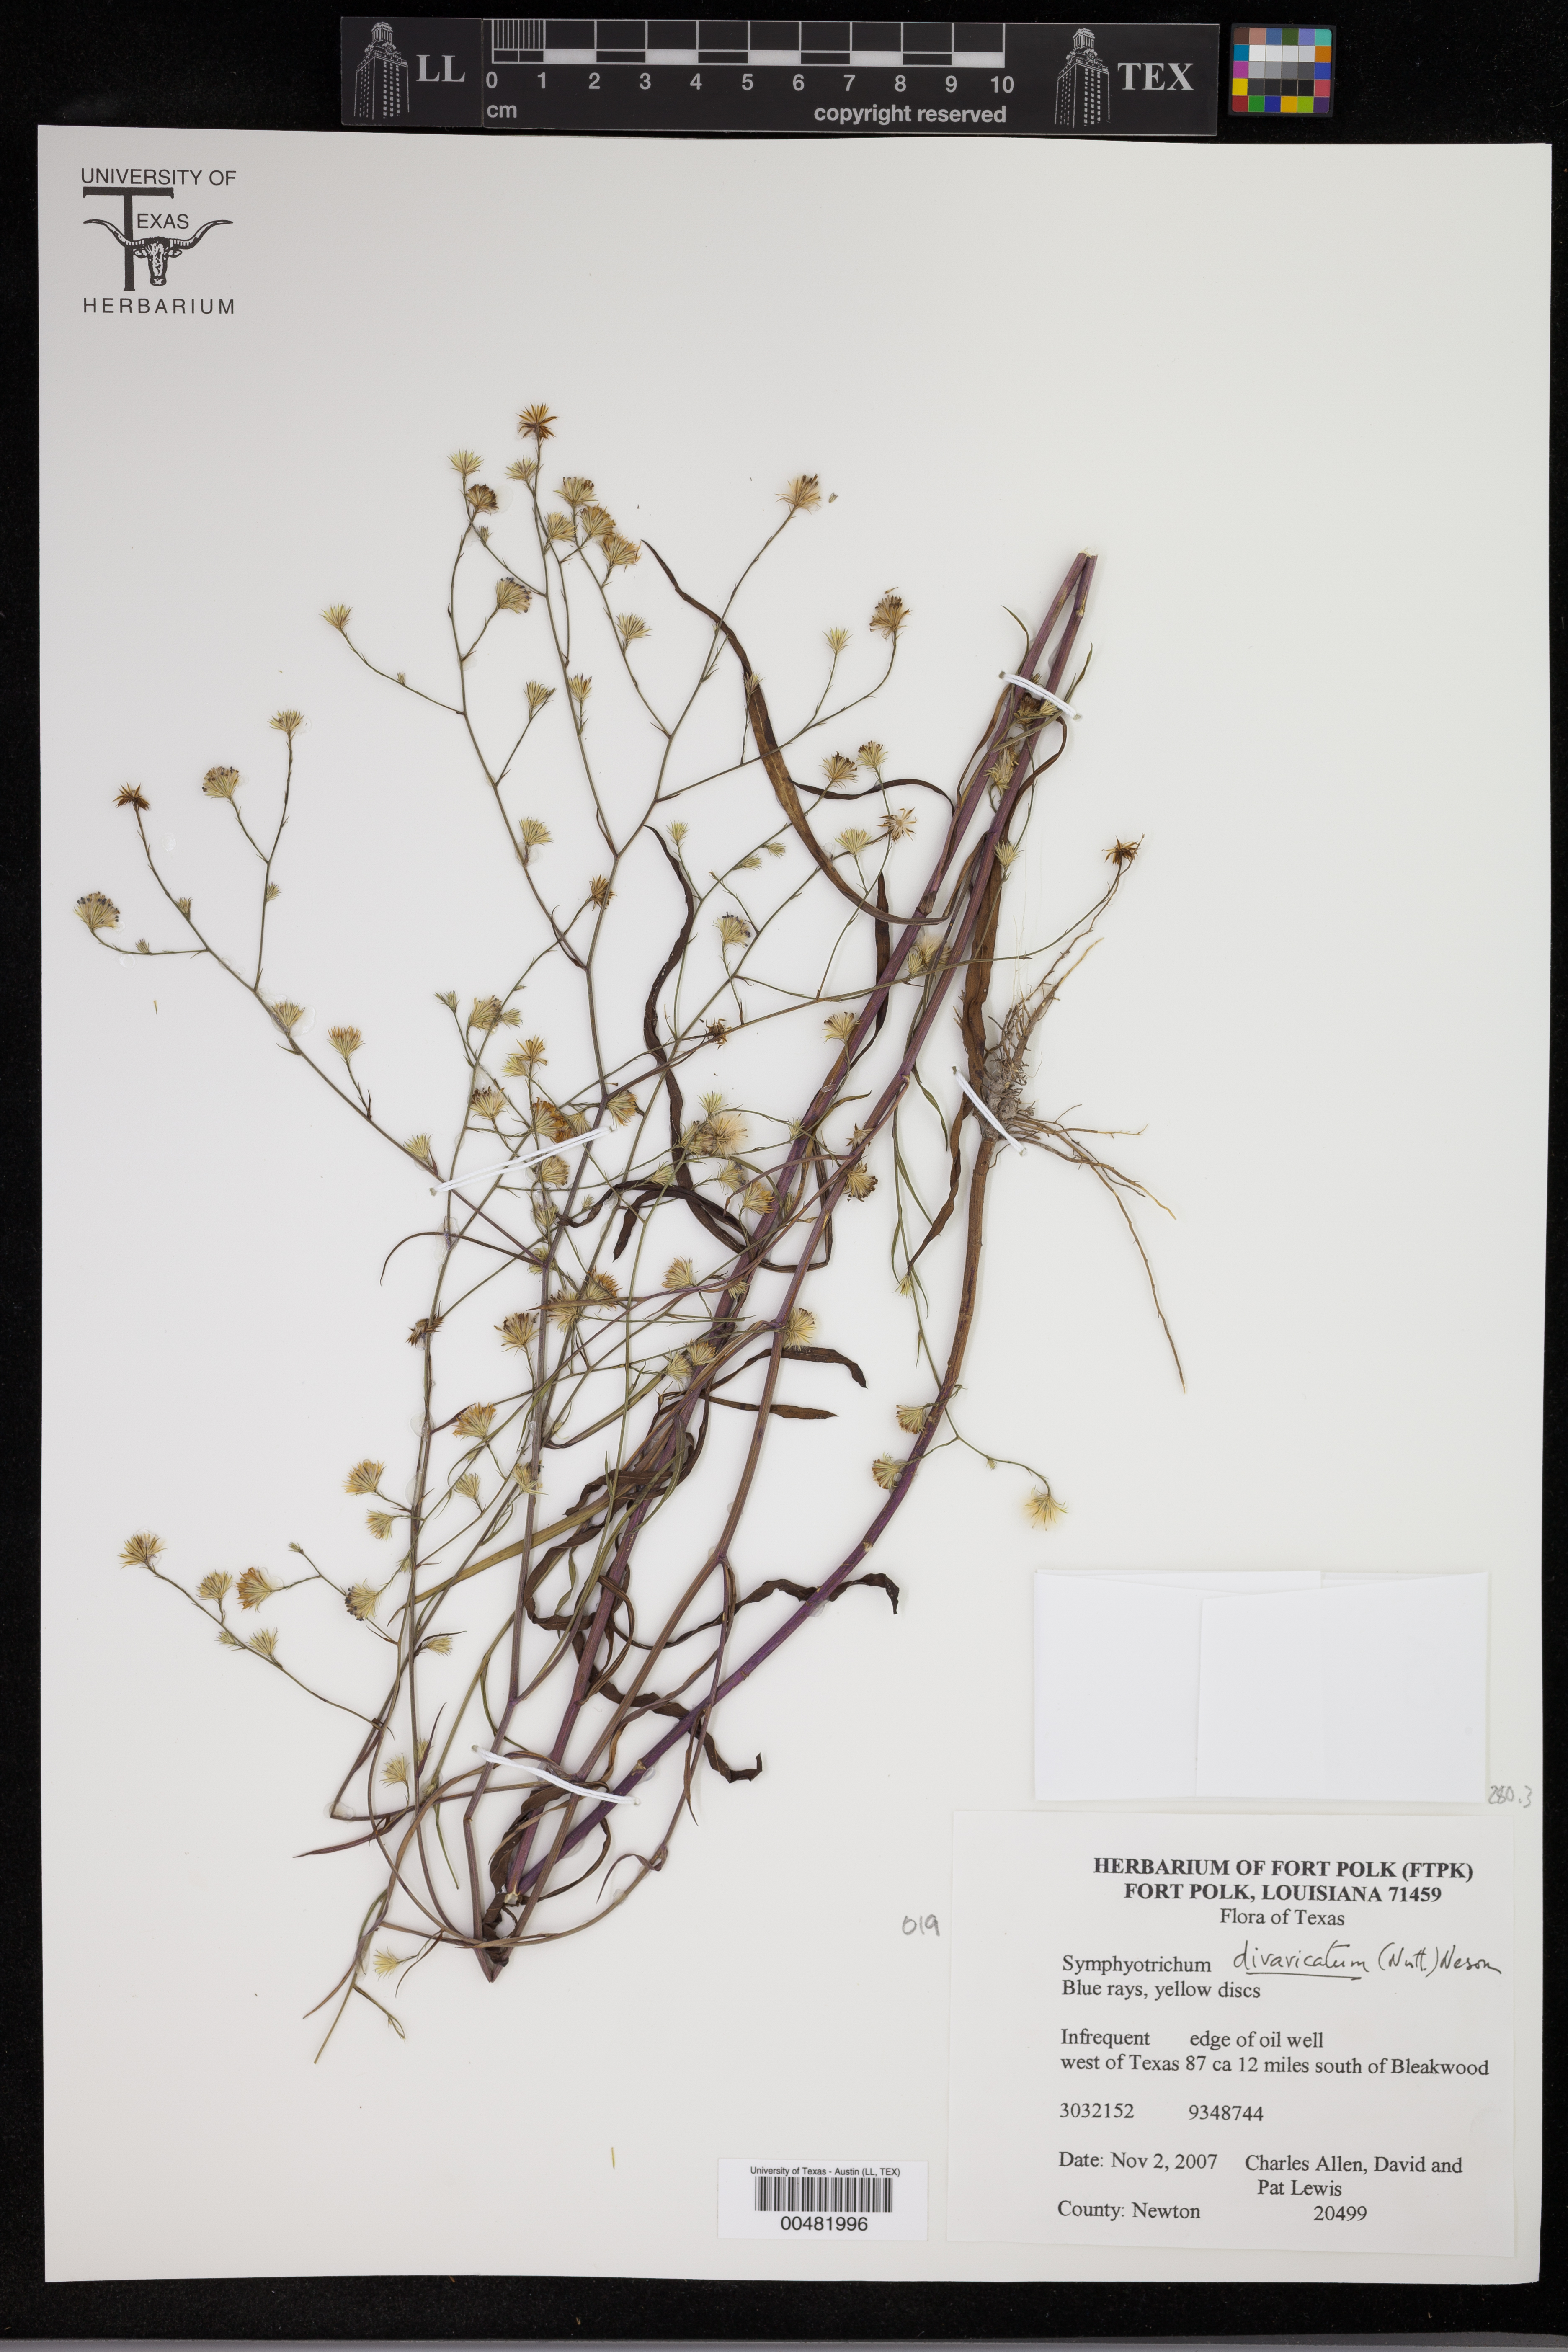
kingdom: Plantae
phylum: Tracheophyta
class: Magnoliopsida
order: Asterales
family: Asteraceae
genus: Symphyotrichum
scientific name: Symphyotrichum divaricatum
